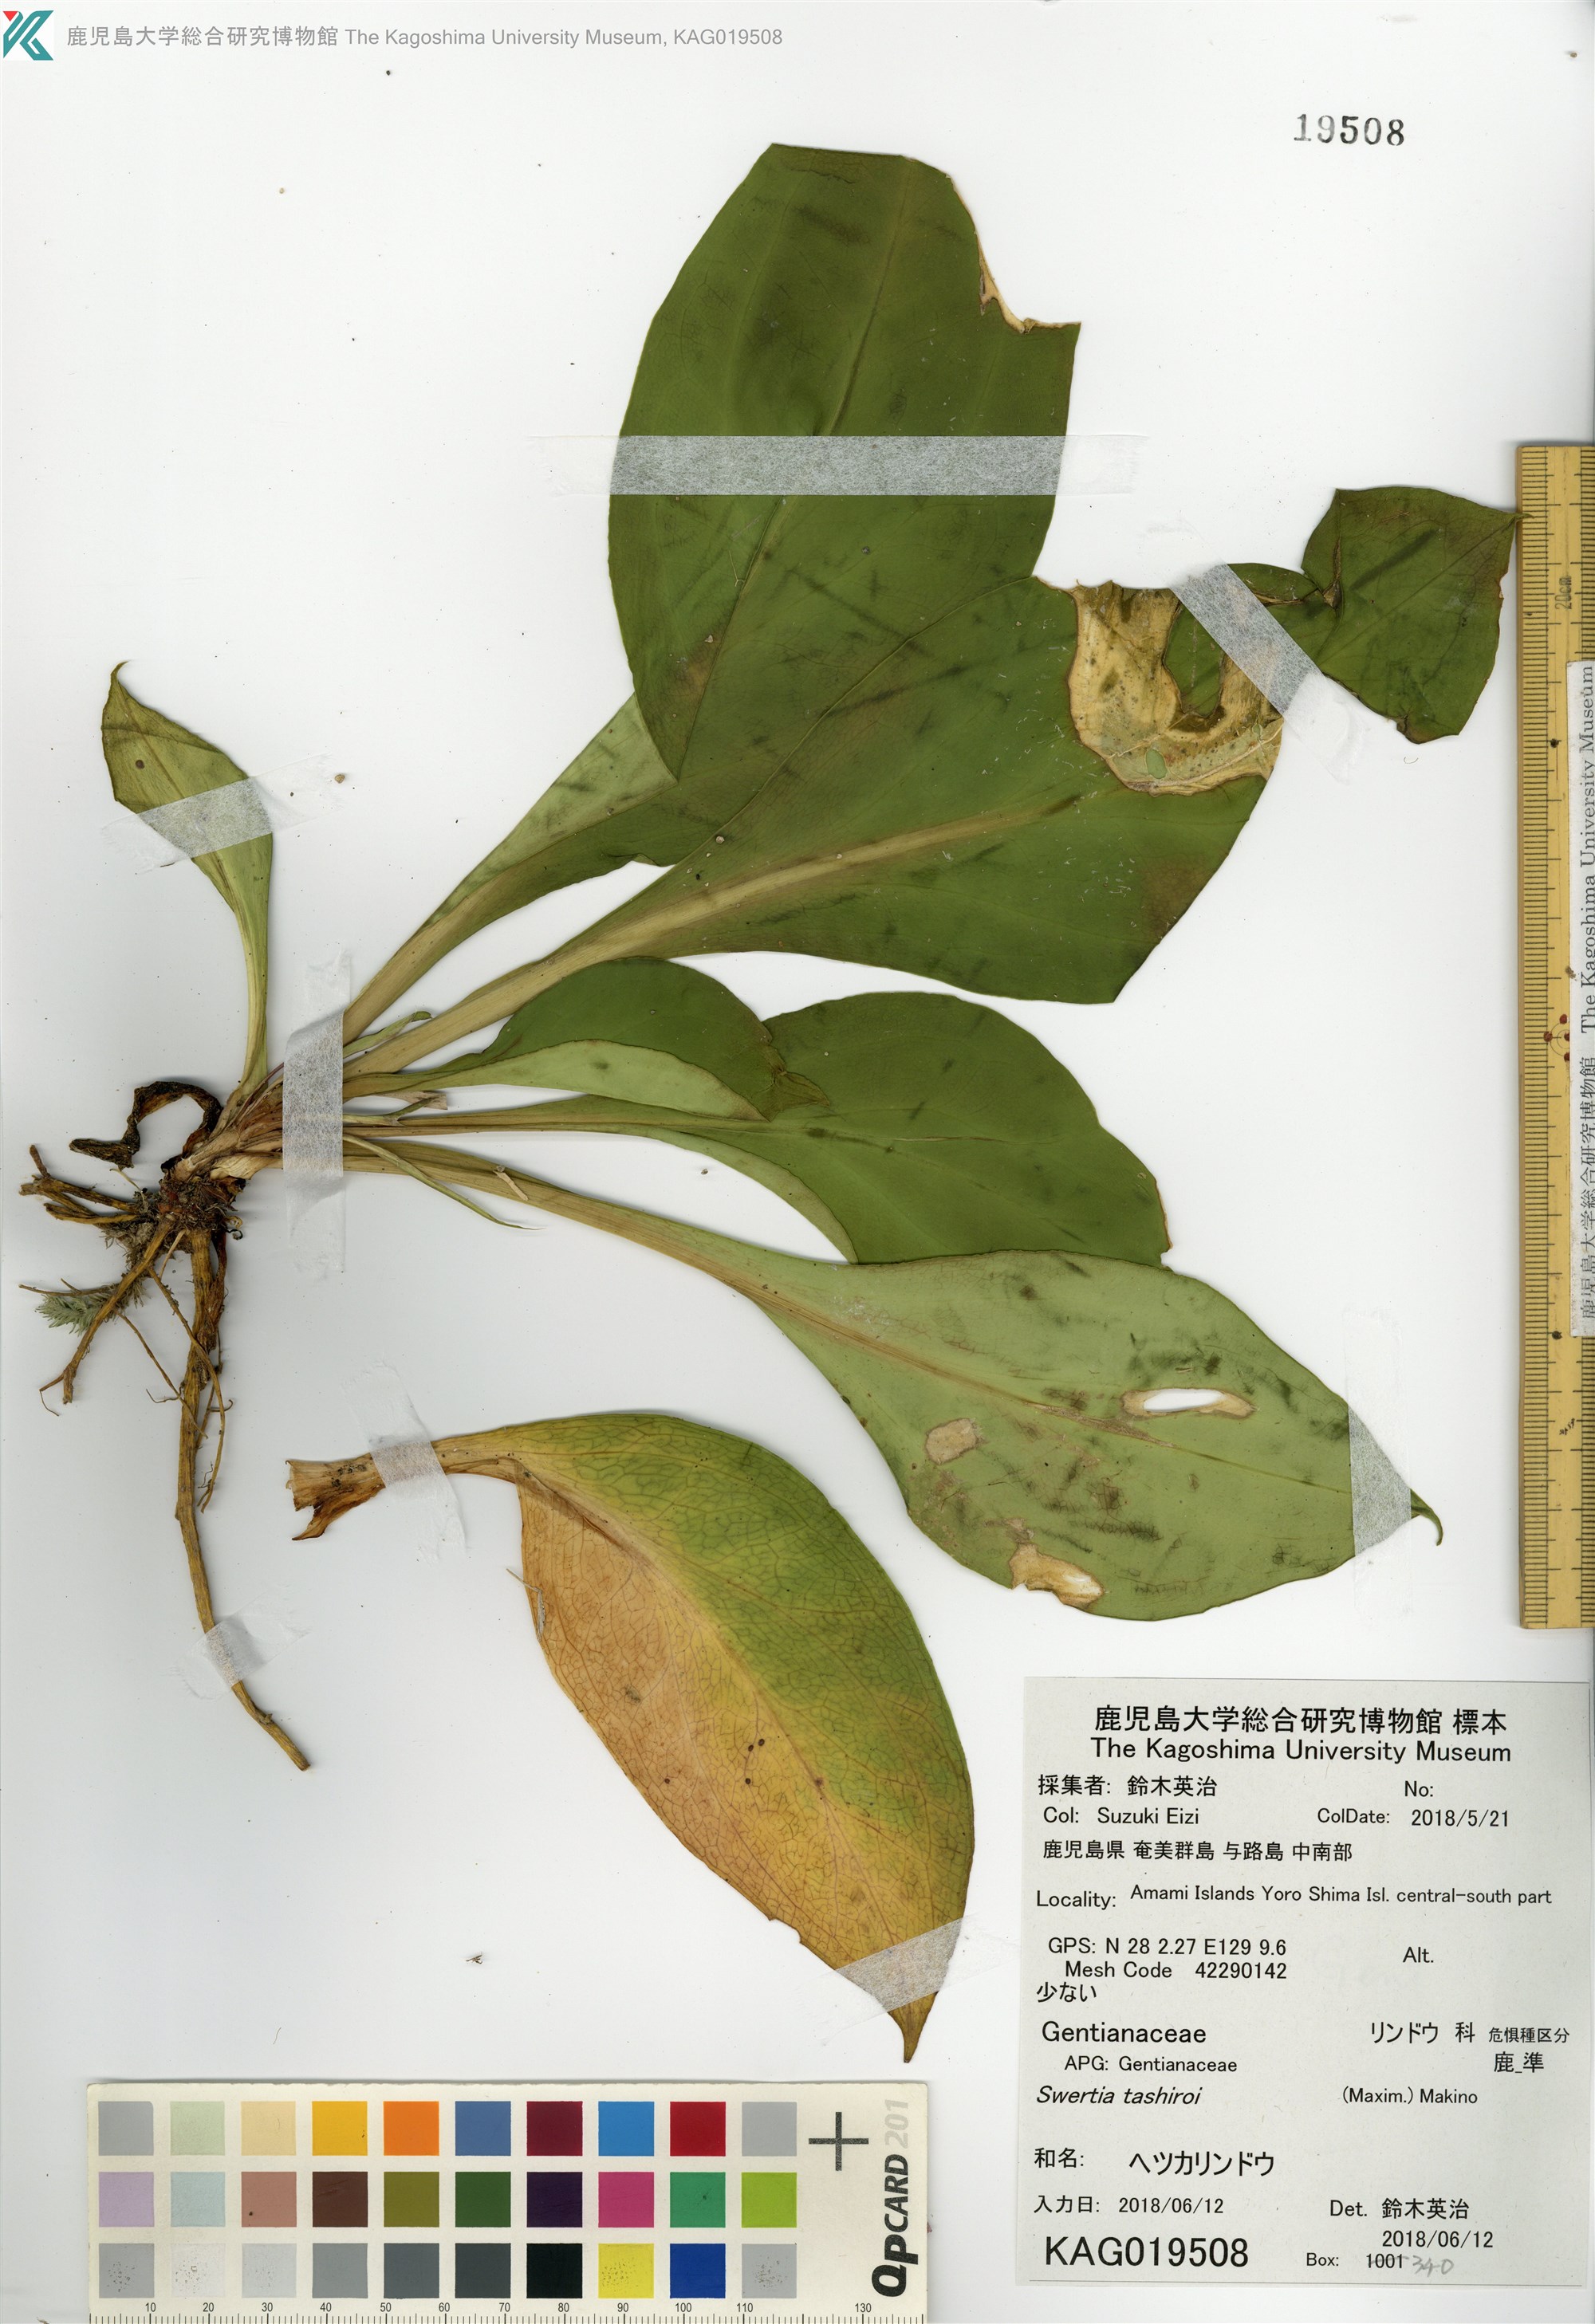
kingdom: Plantae
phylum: Tracheophyta
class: Magnoliopsida
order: Gentianales
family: Gentianaceae
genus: Swertia
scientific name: Swertia tashiroi
